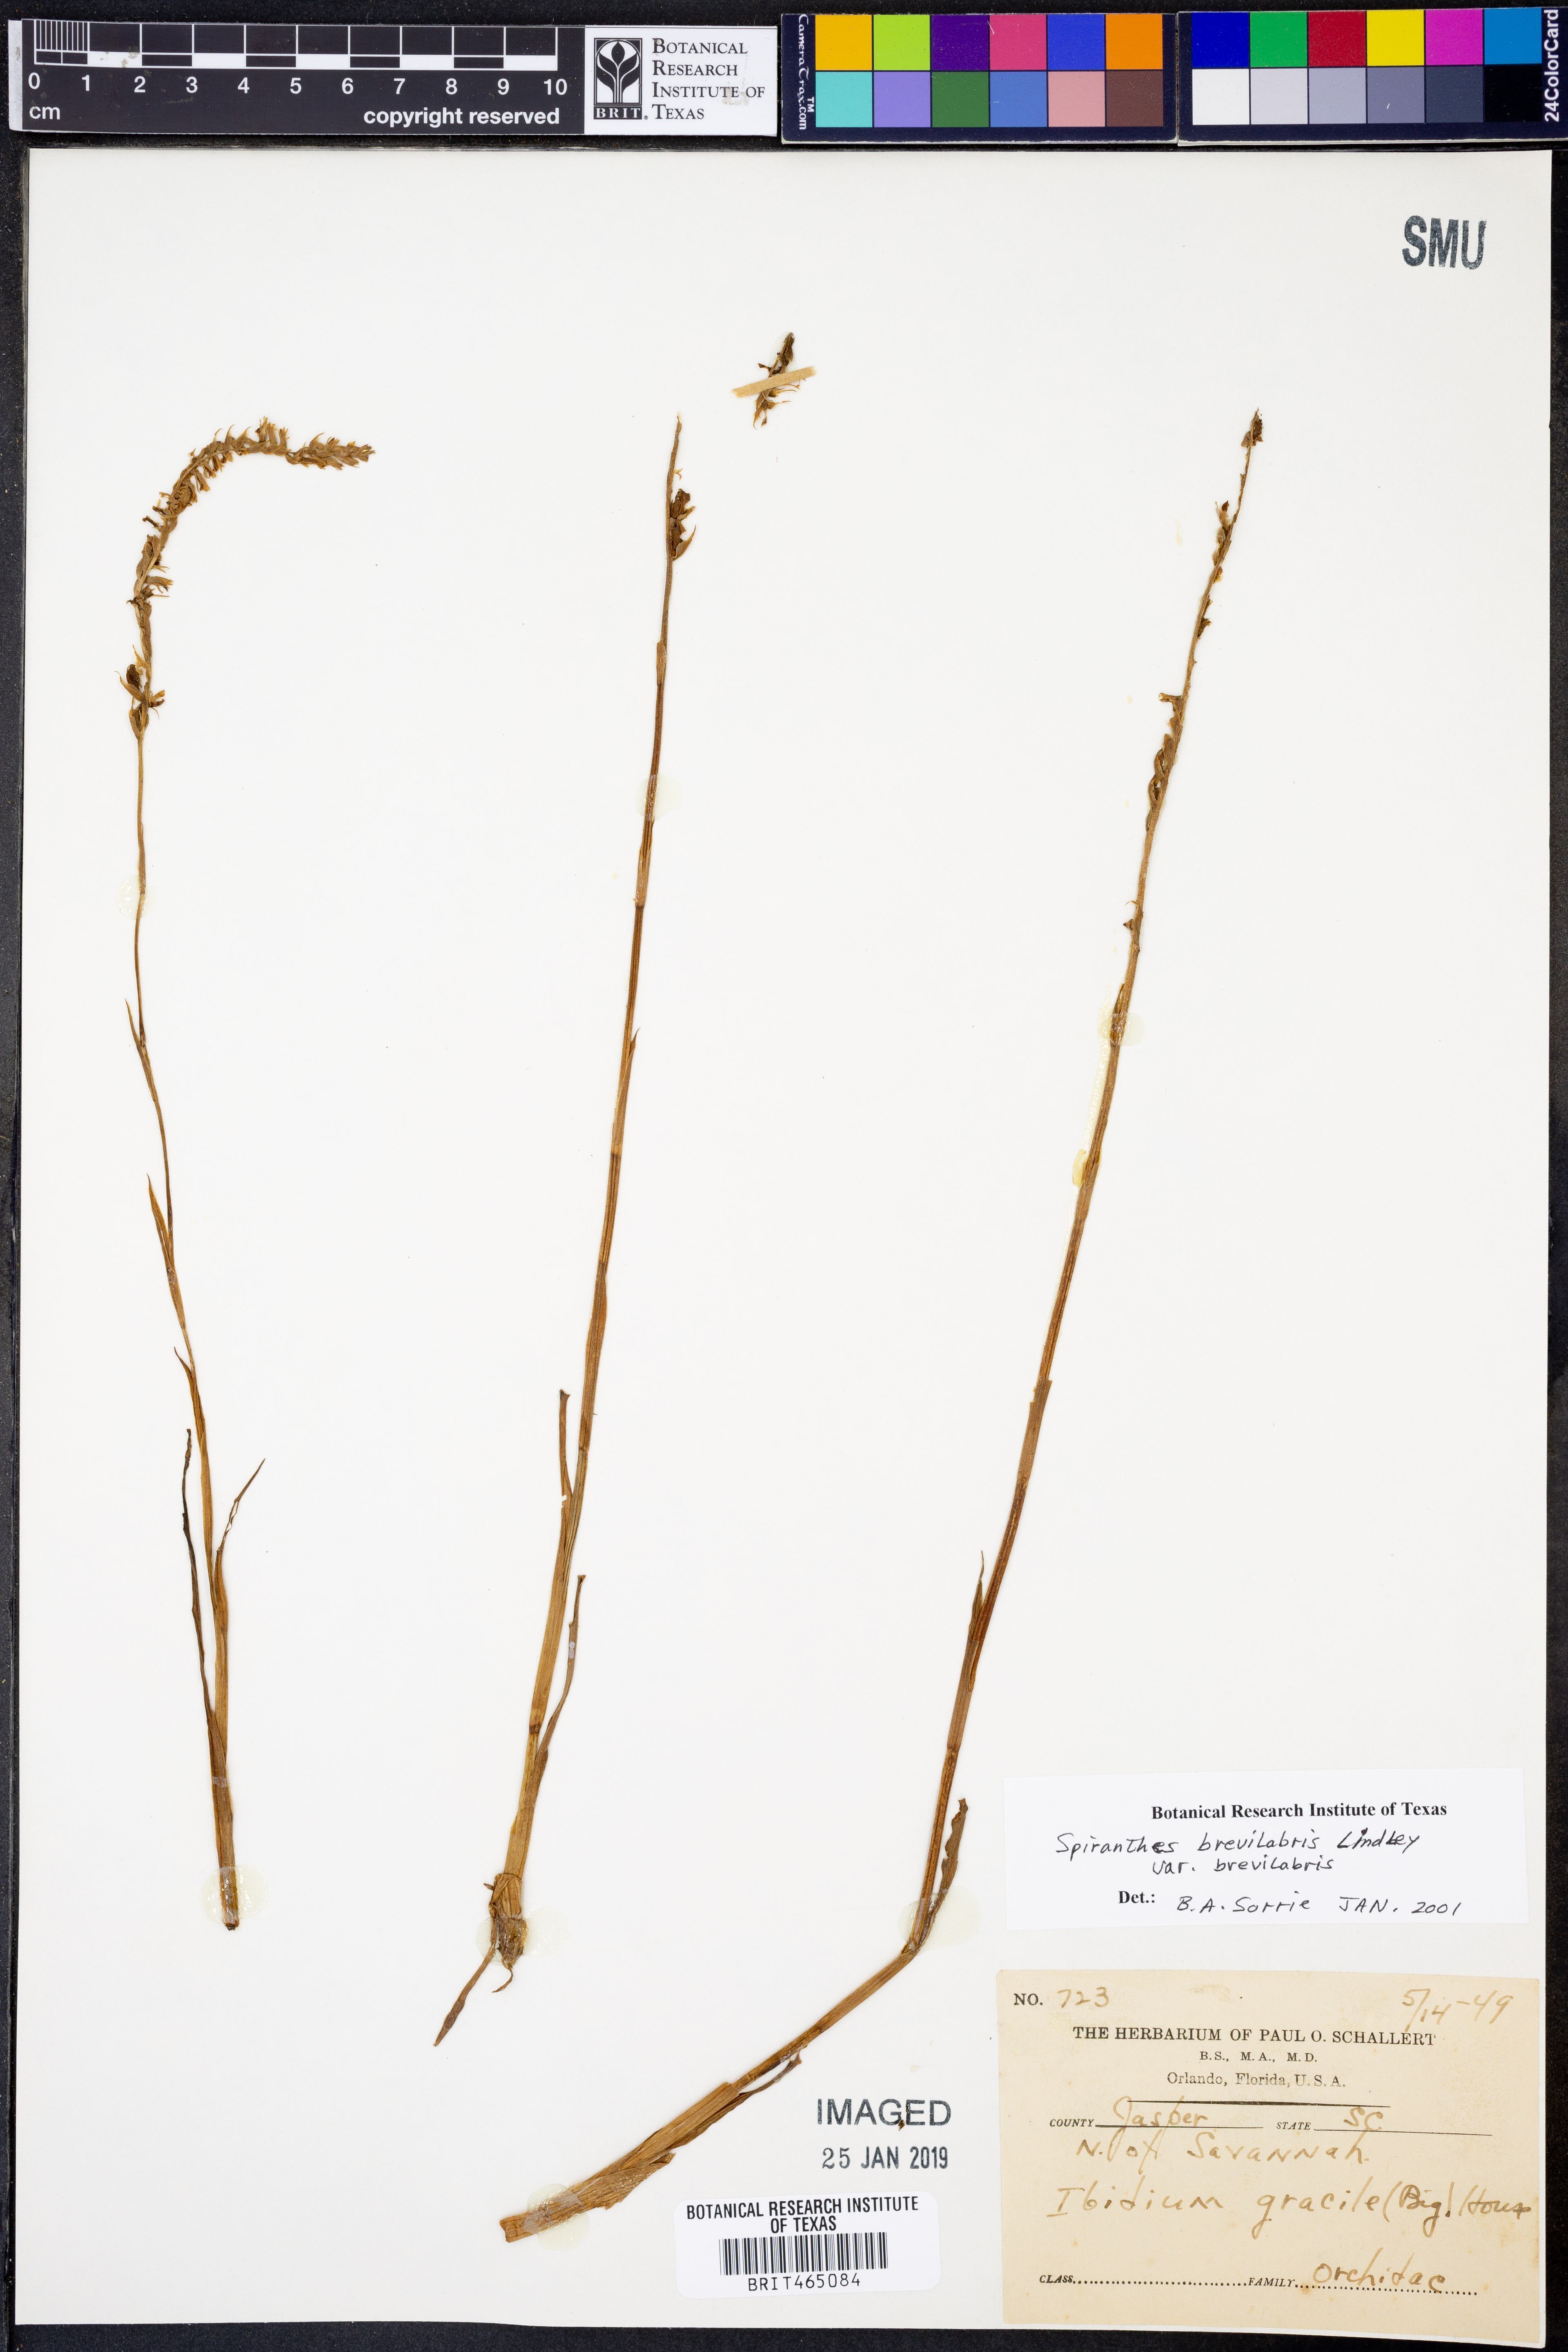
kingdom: Plantae
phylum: Tracheophyta
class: Liliopsida
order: Asparagales
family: Orchidaceae
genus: Spiranthes
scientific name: Spiranthes brevilabris
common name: Texas ladies'-tresses
